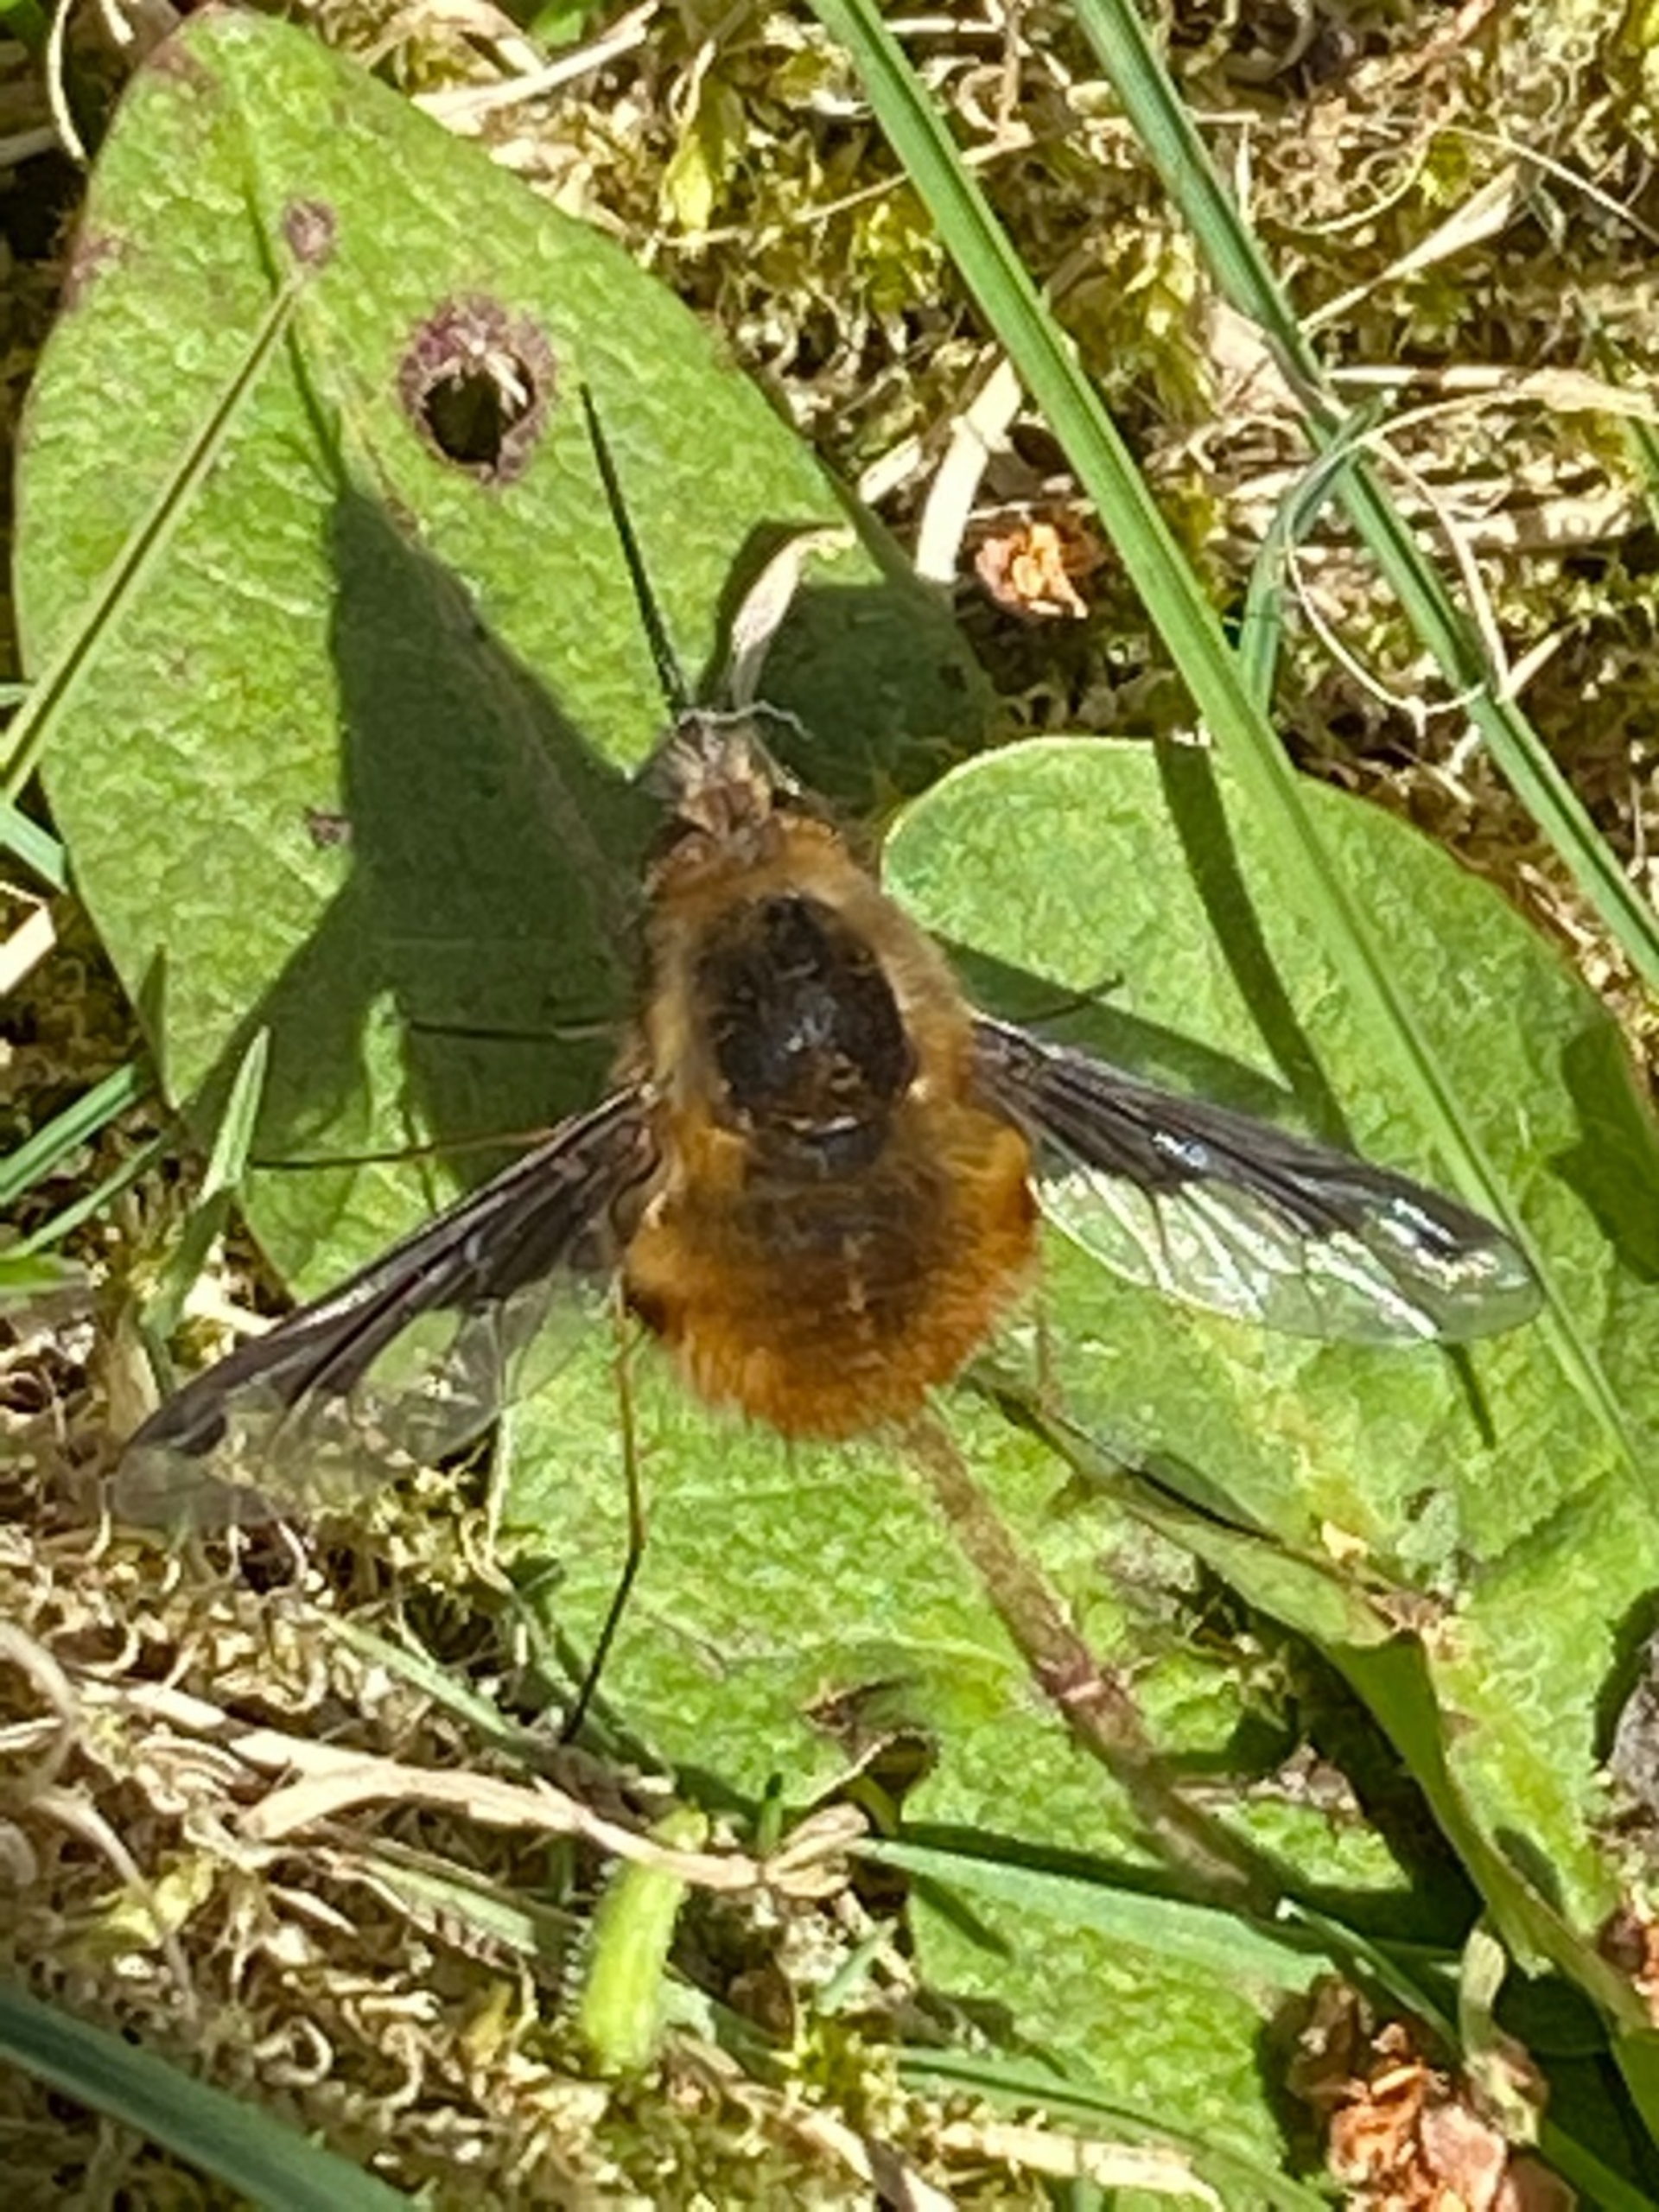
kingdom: Animalia
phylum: Arthropoda
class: Insecta
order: Diptera
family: Bombyliidae
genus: Bombylius
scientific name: Bombylius major
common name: Stor humleflue
